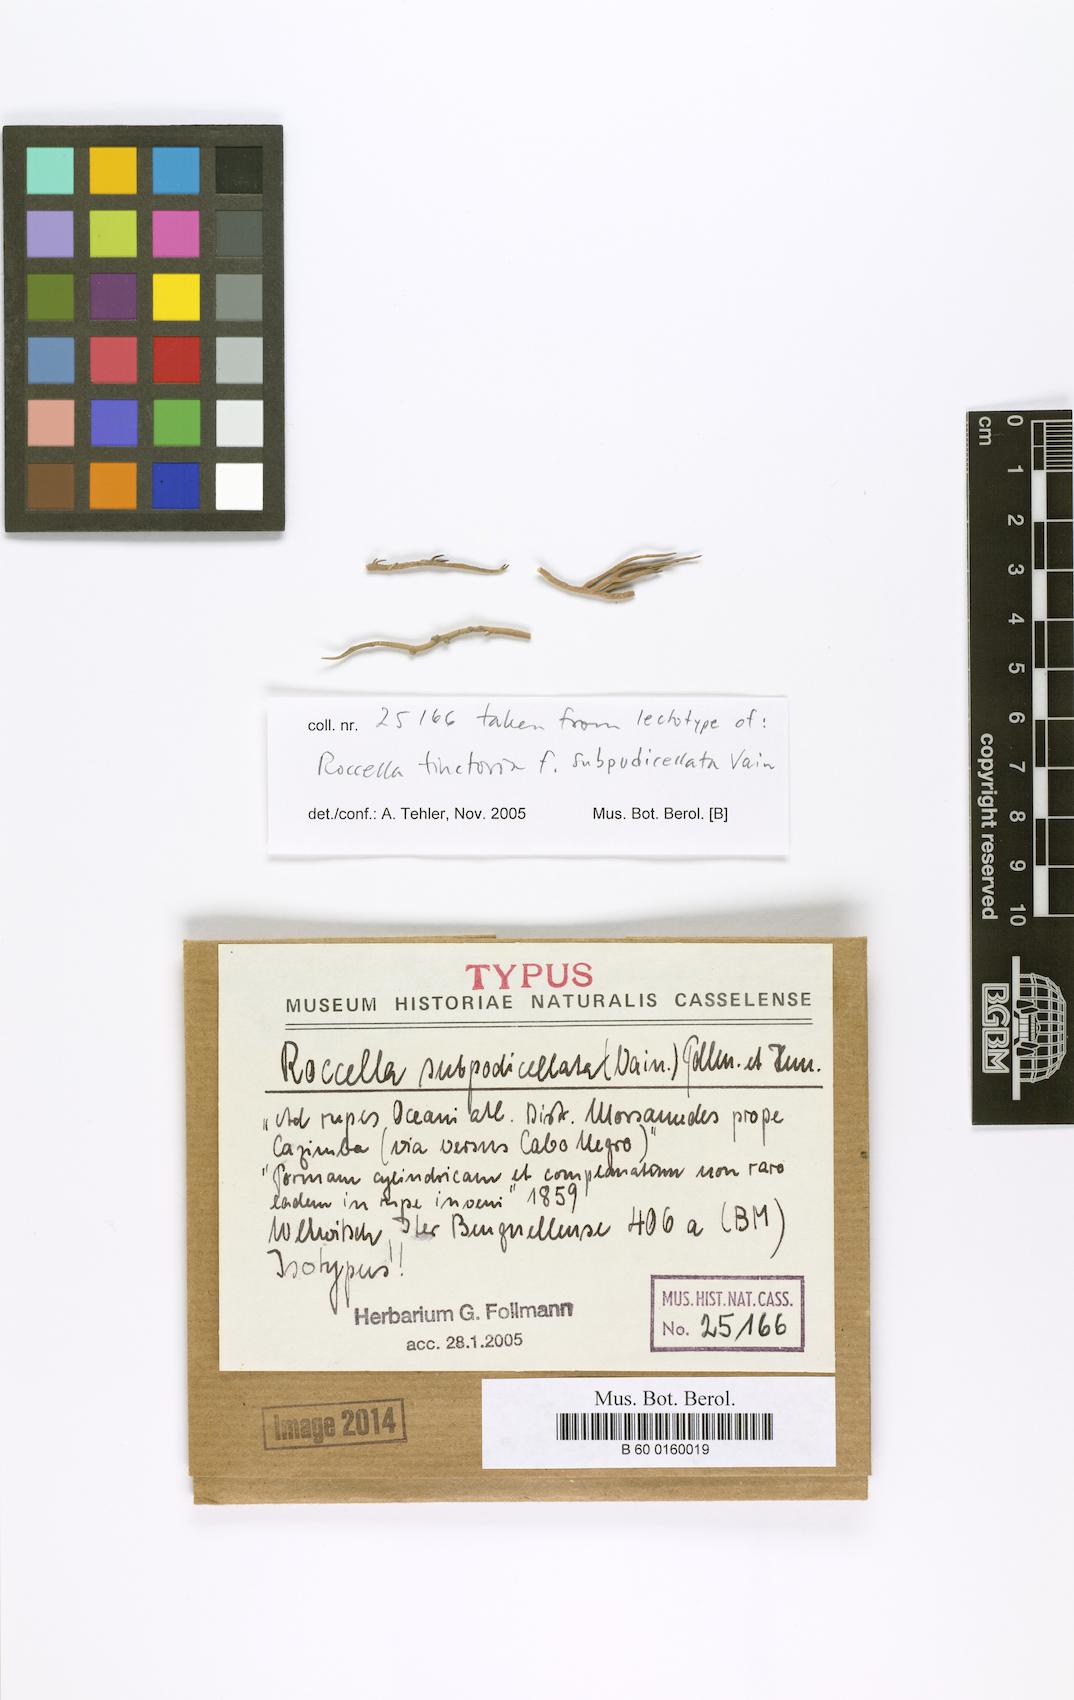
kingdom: Fungi
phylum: Ascomycota
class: Arthoniomycetes
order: Arthoniales
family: Roccellaceae
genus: Roccella
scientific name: Roccella
